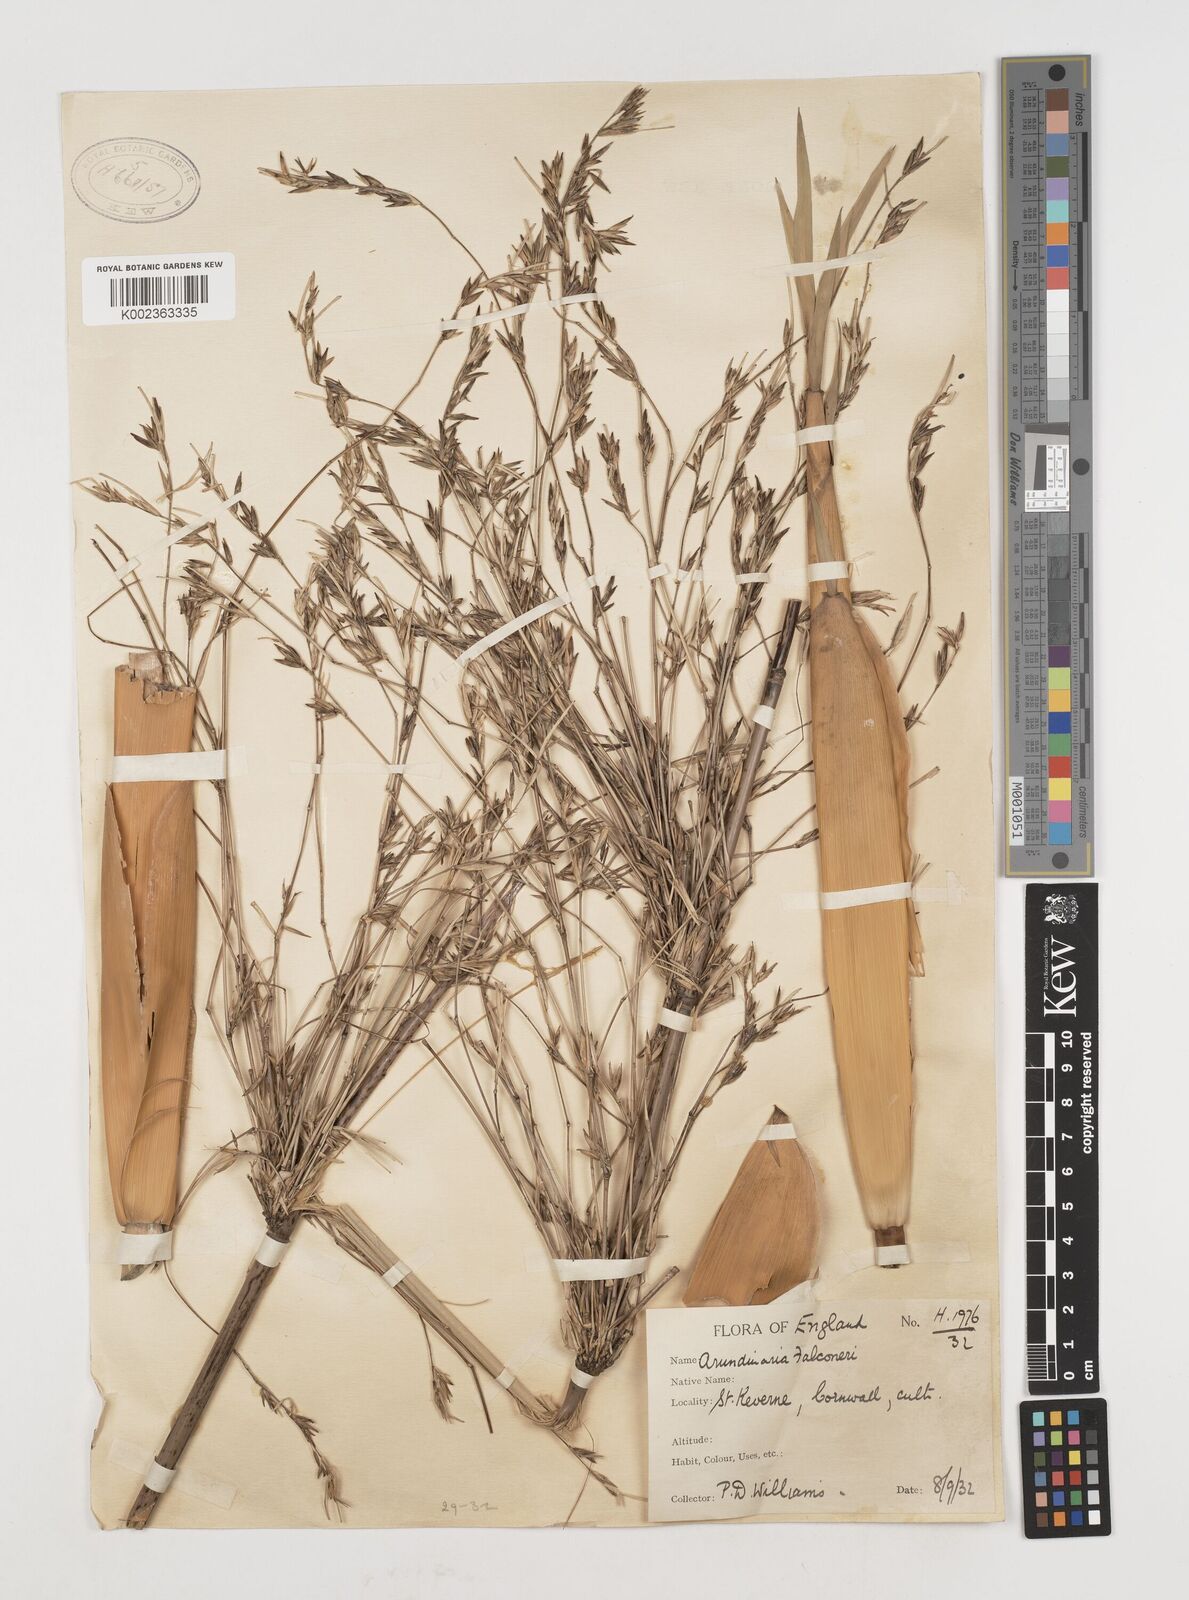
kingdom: Plantae
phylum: Tracheophyta
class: Liliopsida
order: Poales
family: Poaceae
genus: Himalayacalamus
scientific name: Himalayacalamus falconeri
